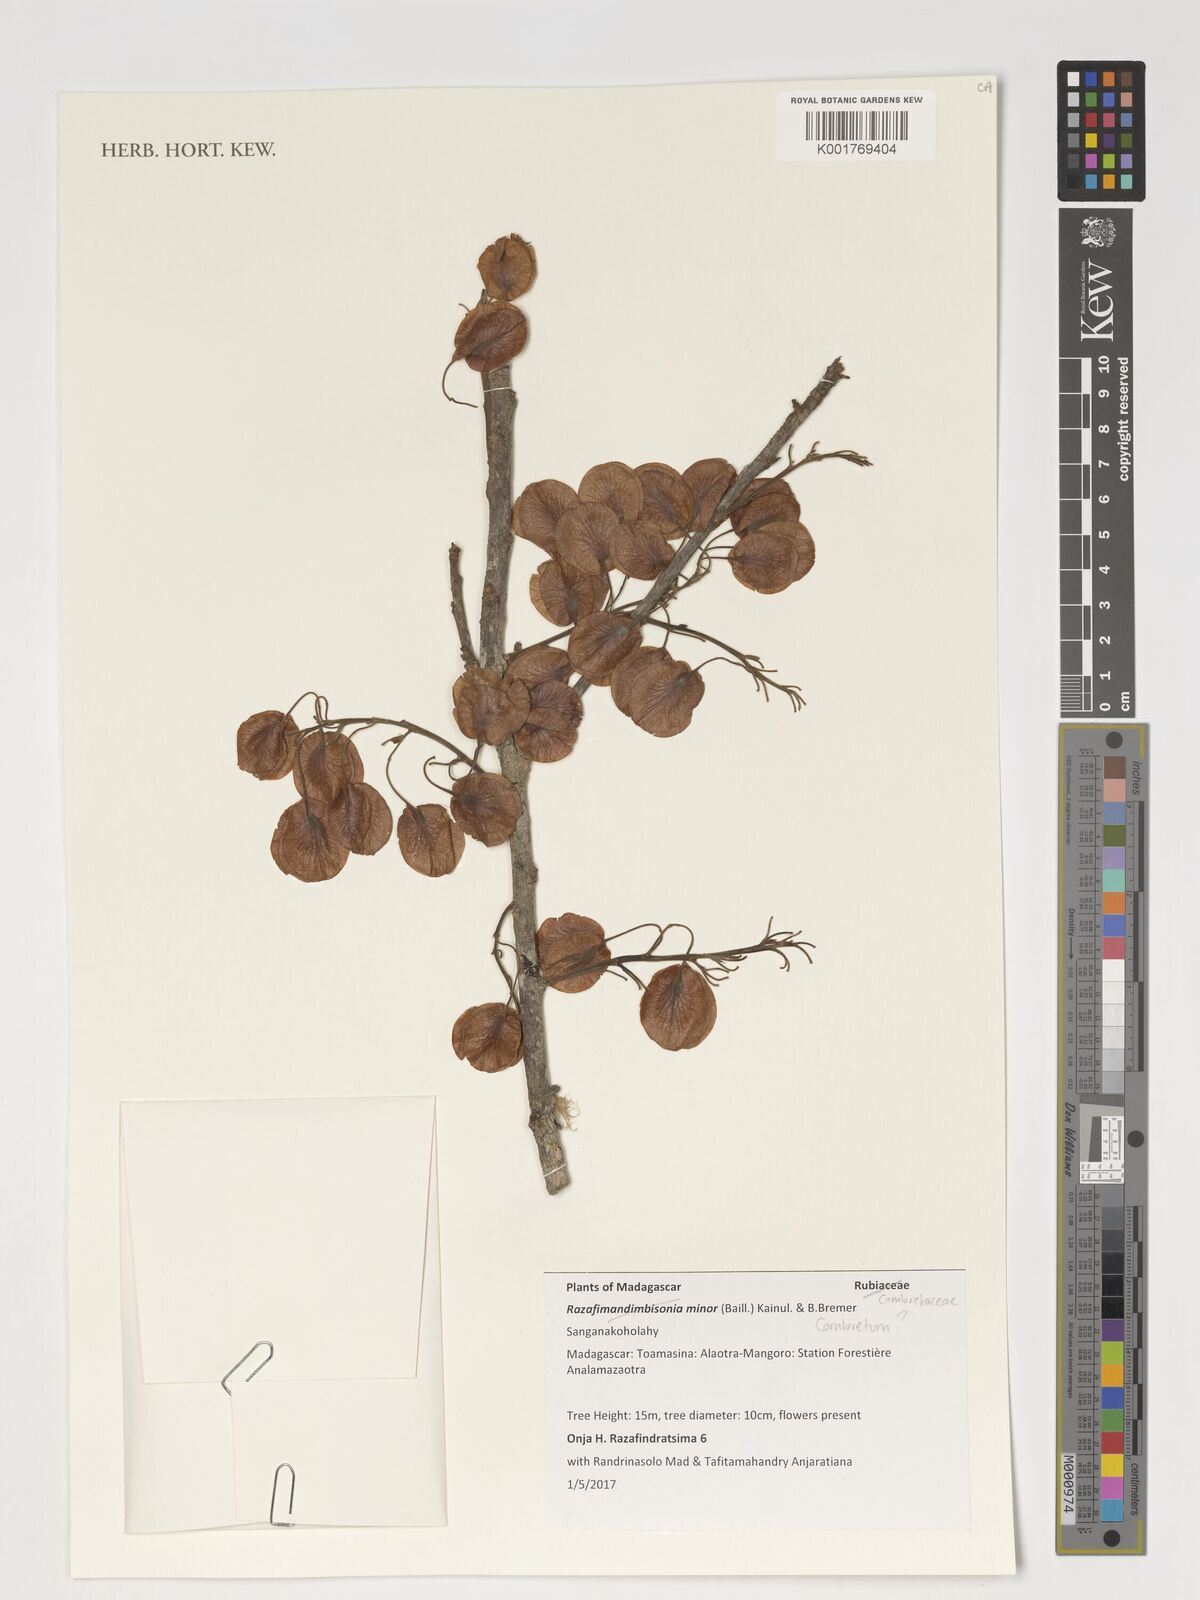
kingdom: Plantae
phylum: Tracheophyta
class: Magnoliopsida
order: Myrtales
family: Combretaceae
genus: Combretum
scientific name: Combretum
